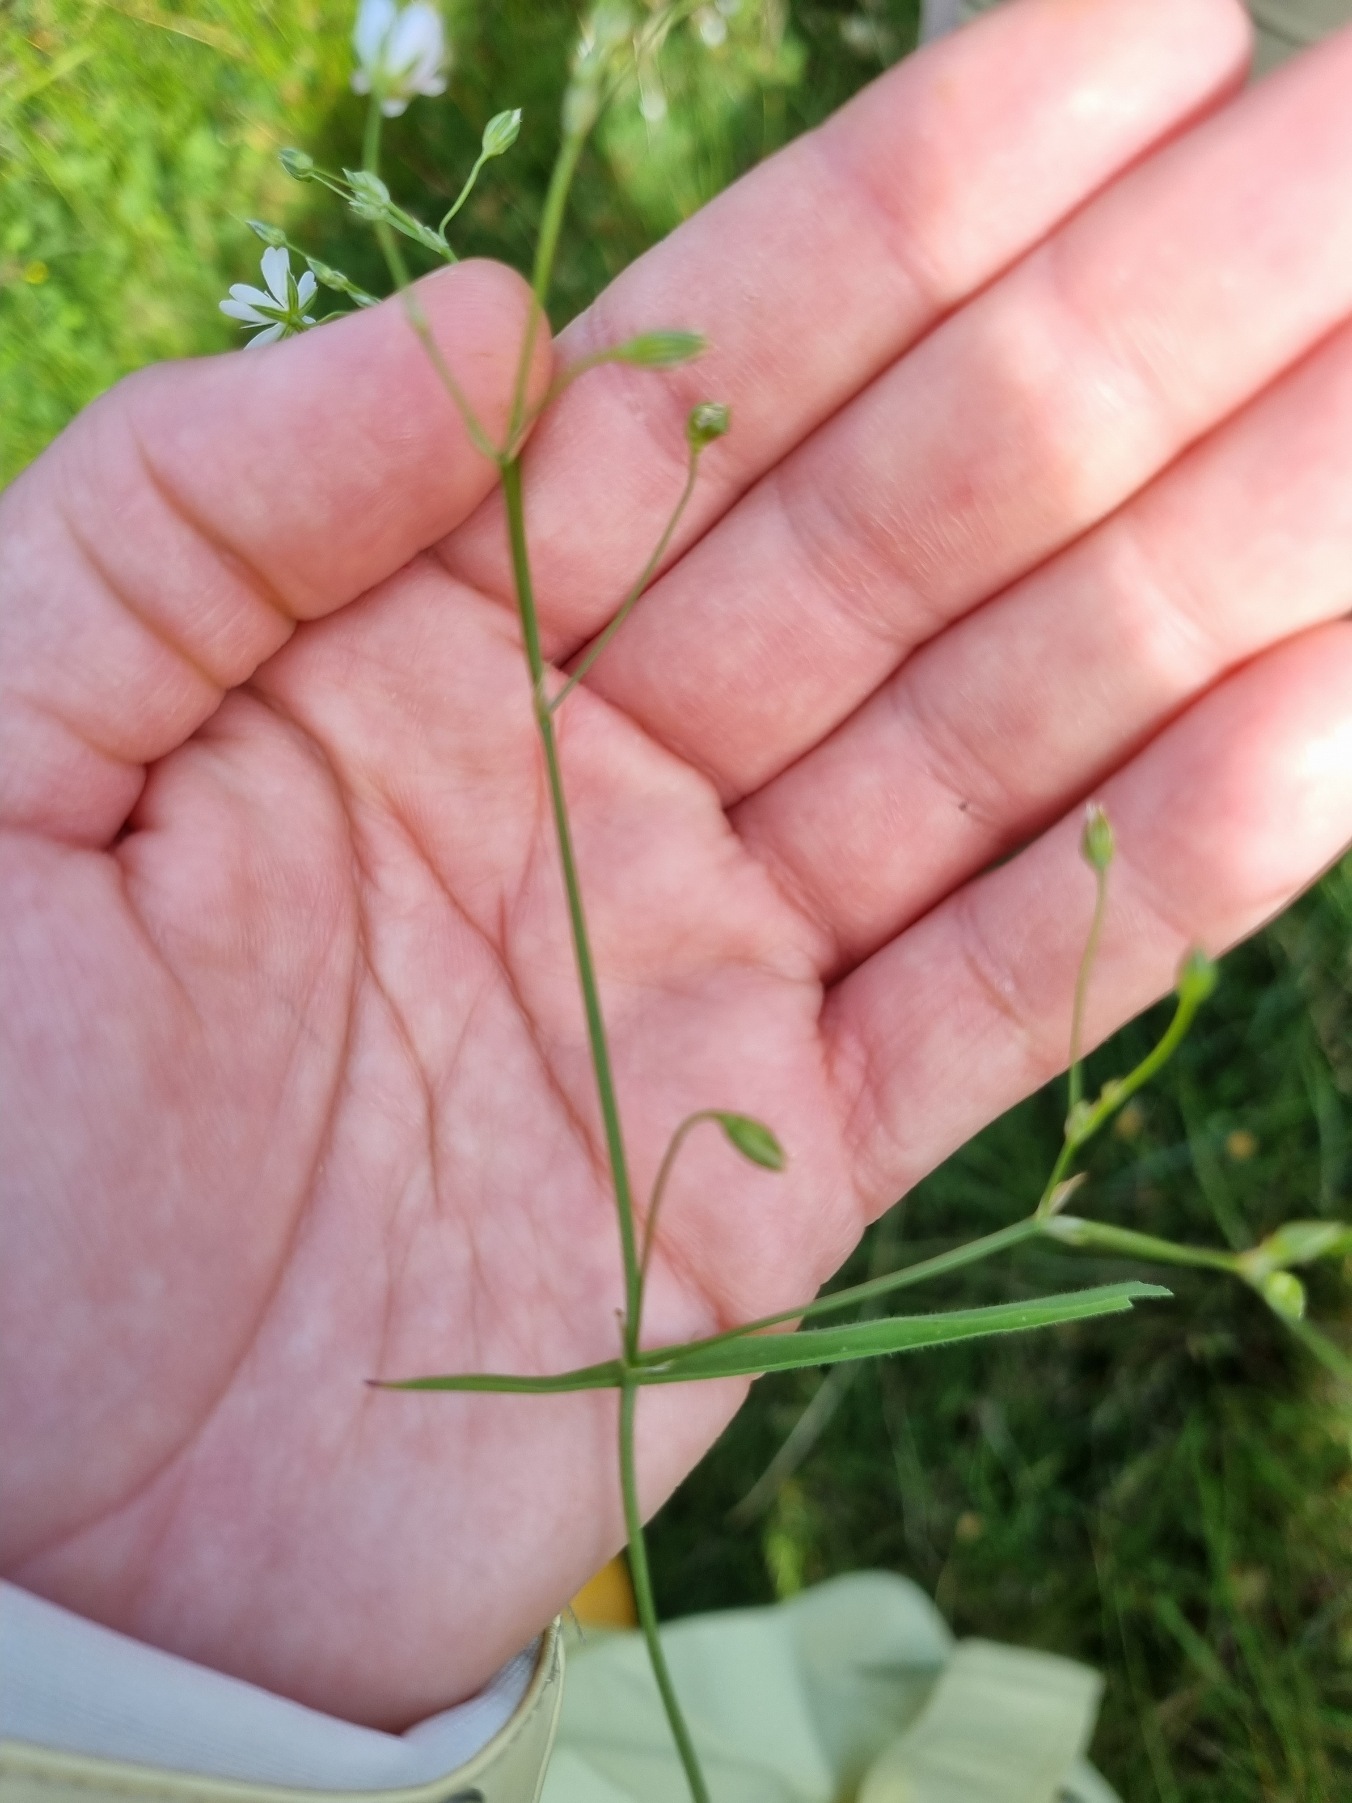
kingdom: Plantae
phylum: Tracheophyta
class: Magnoliopsida
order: Caryophyllales
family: Caryophyllaceae
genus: Stellaria
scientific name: Stellaria graminea
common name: Græsbladet fladstjerne
